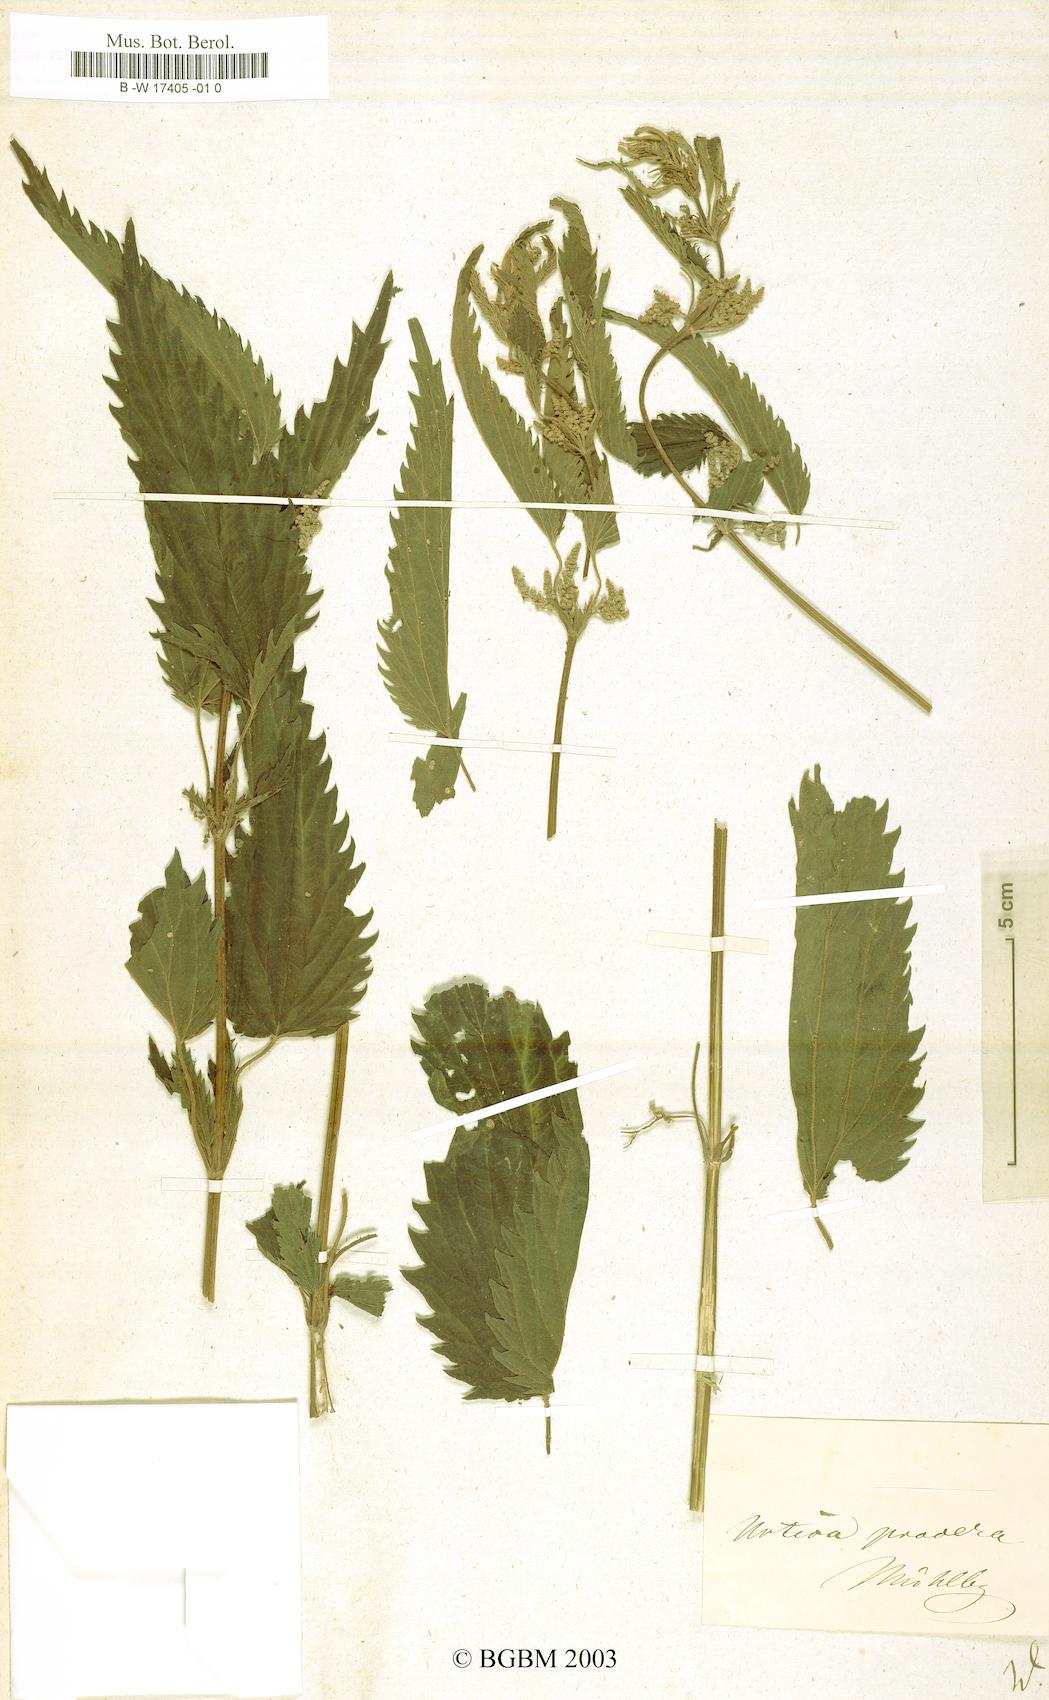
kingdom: Plantae
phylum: Tracheophyta
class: Magnoliopsida
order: Rosales
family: Urticaceae
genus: Urtica
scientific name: Urtica
